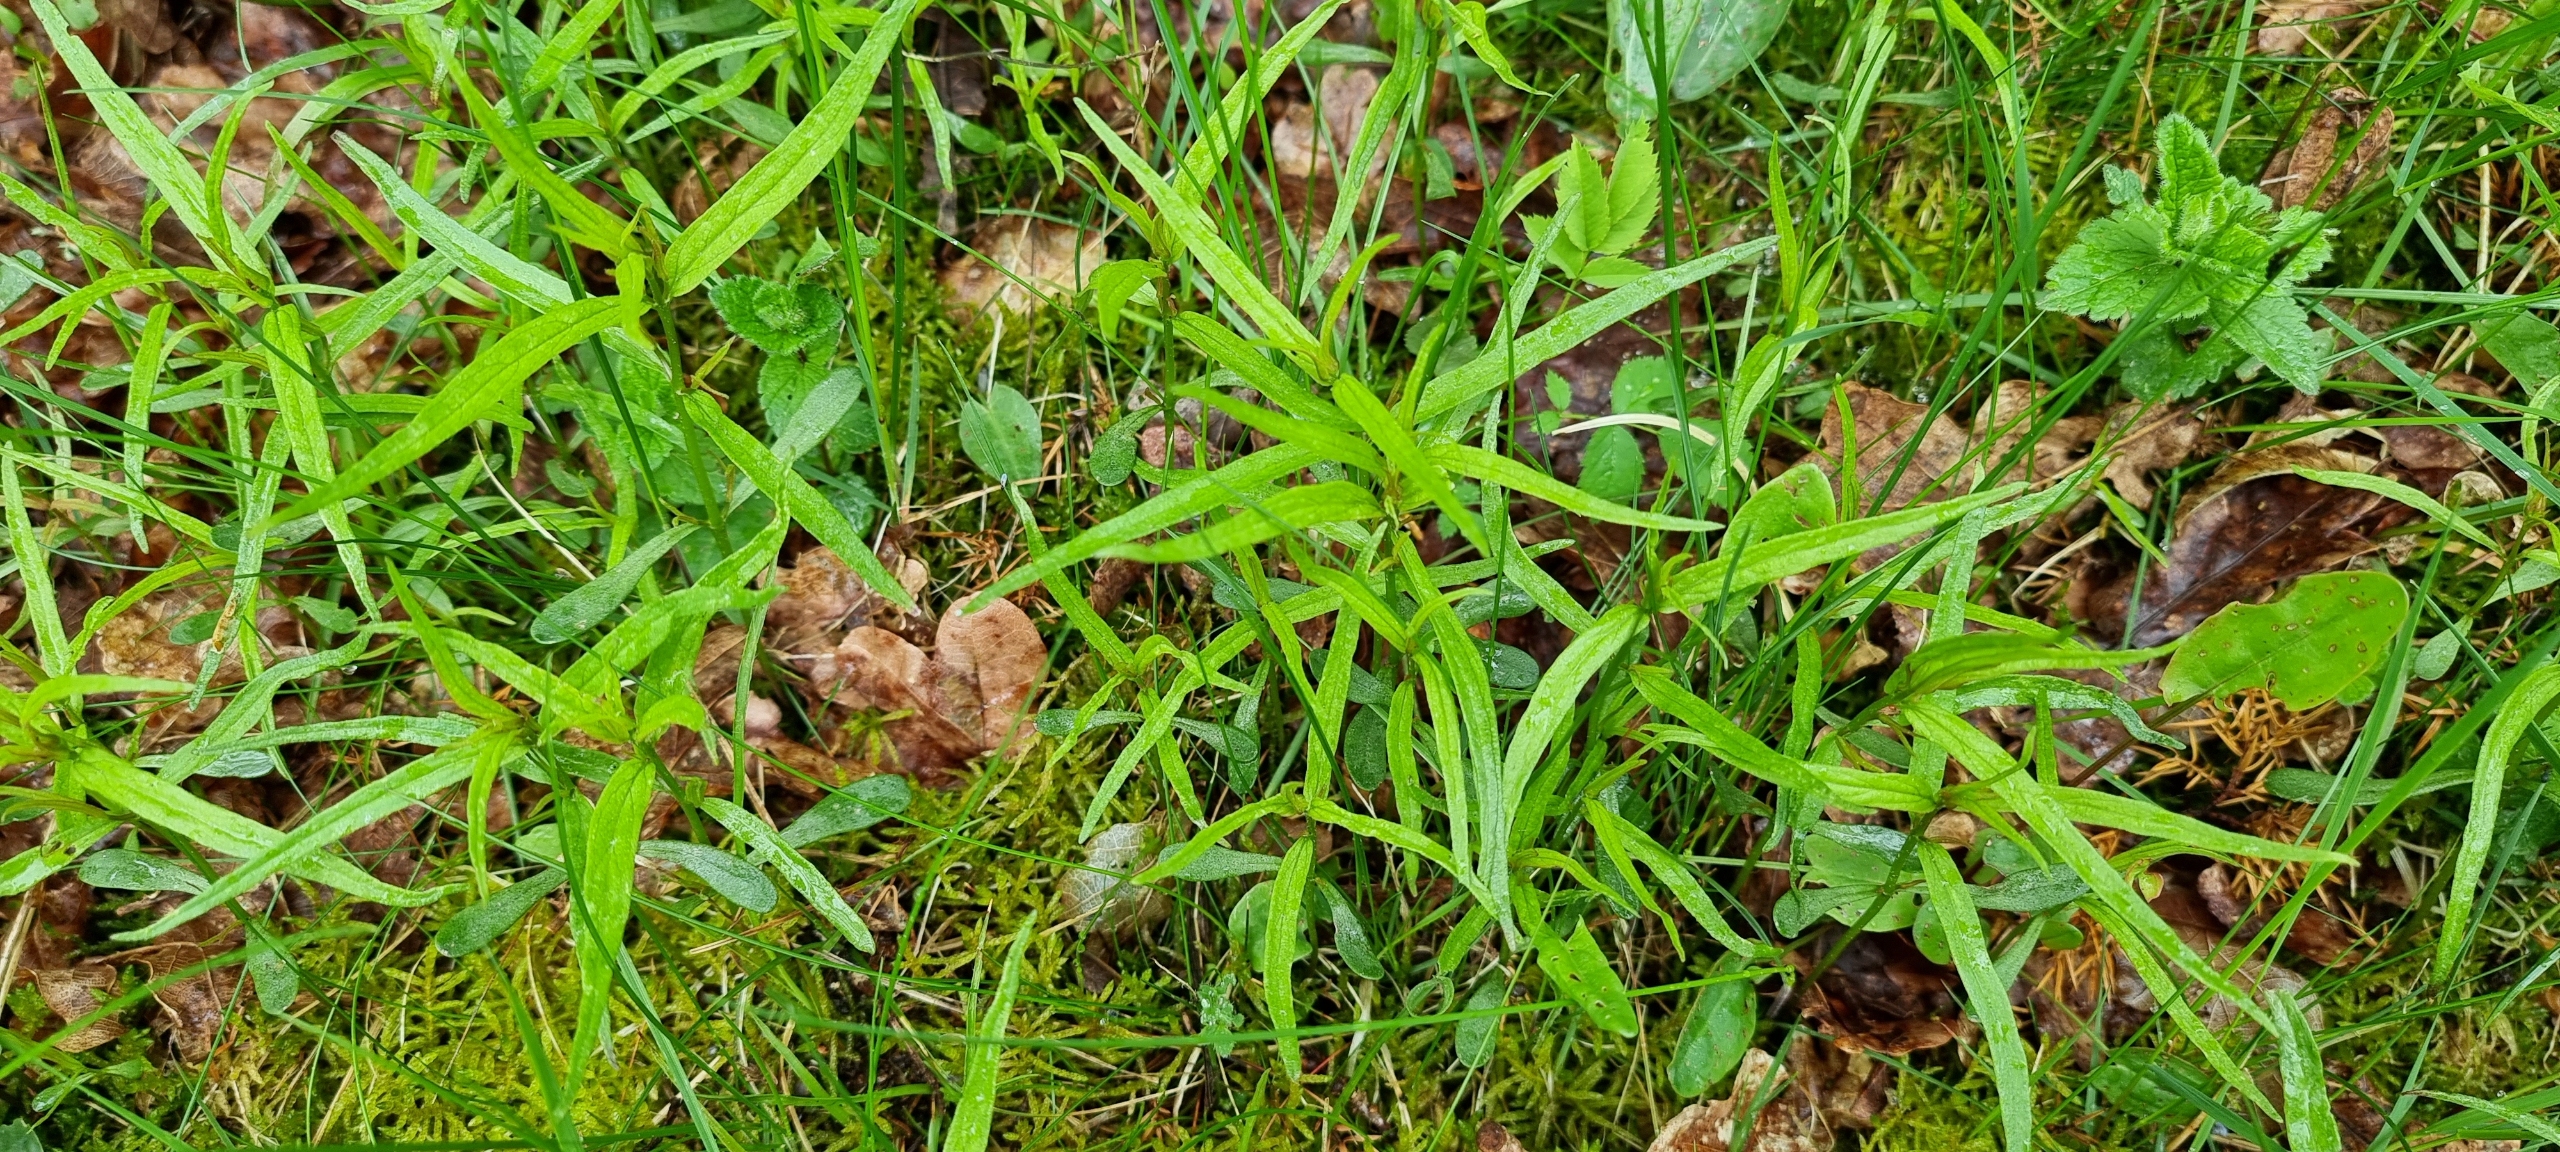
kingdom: Plantae
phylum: Tracheophyta
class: Magnoliopsida
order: Lamiales
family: Orobanchaceae
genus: Melampyrum
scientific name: Melampyrum pratense
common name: Almindelig kohvede
